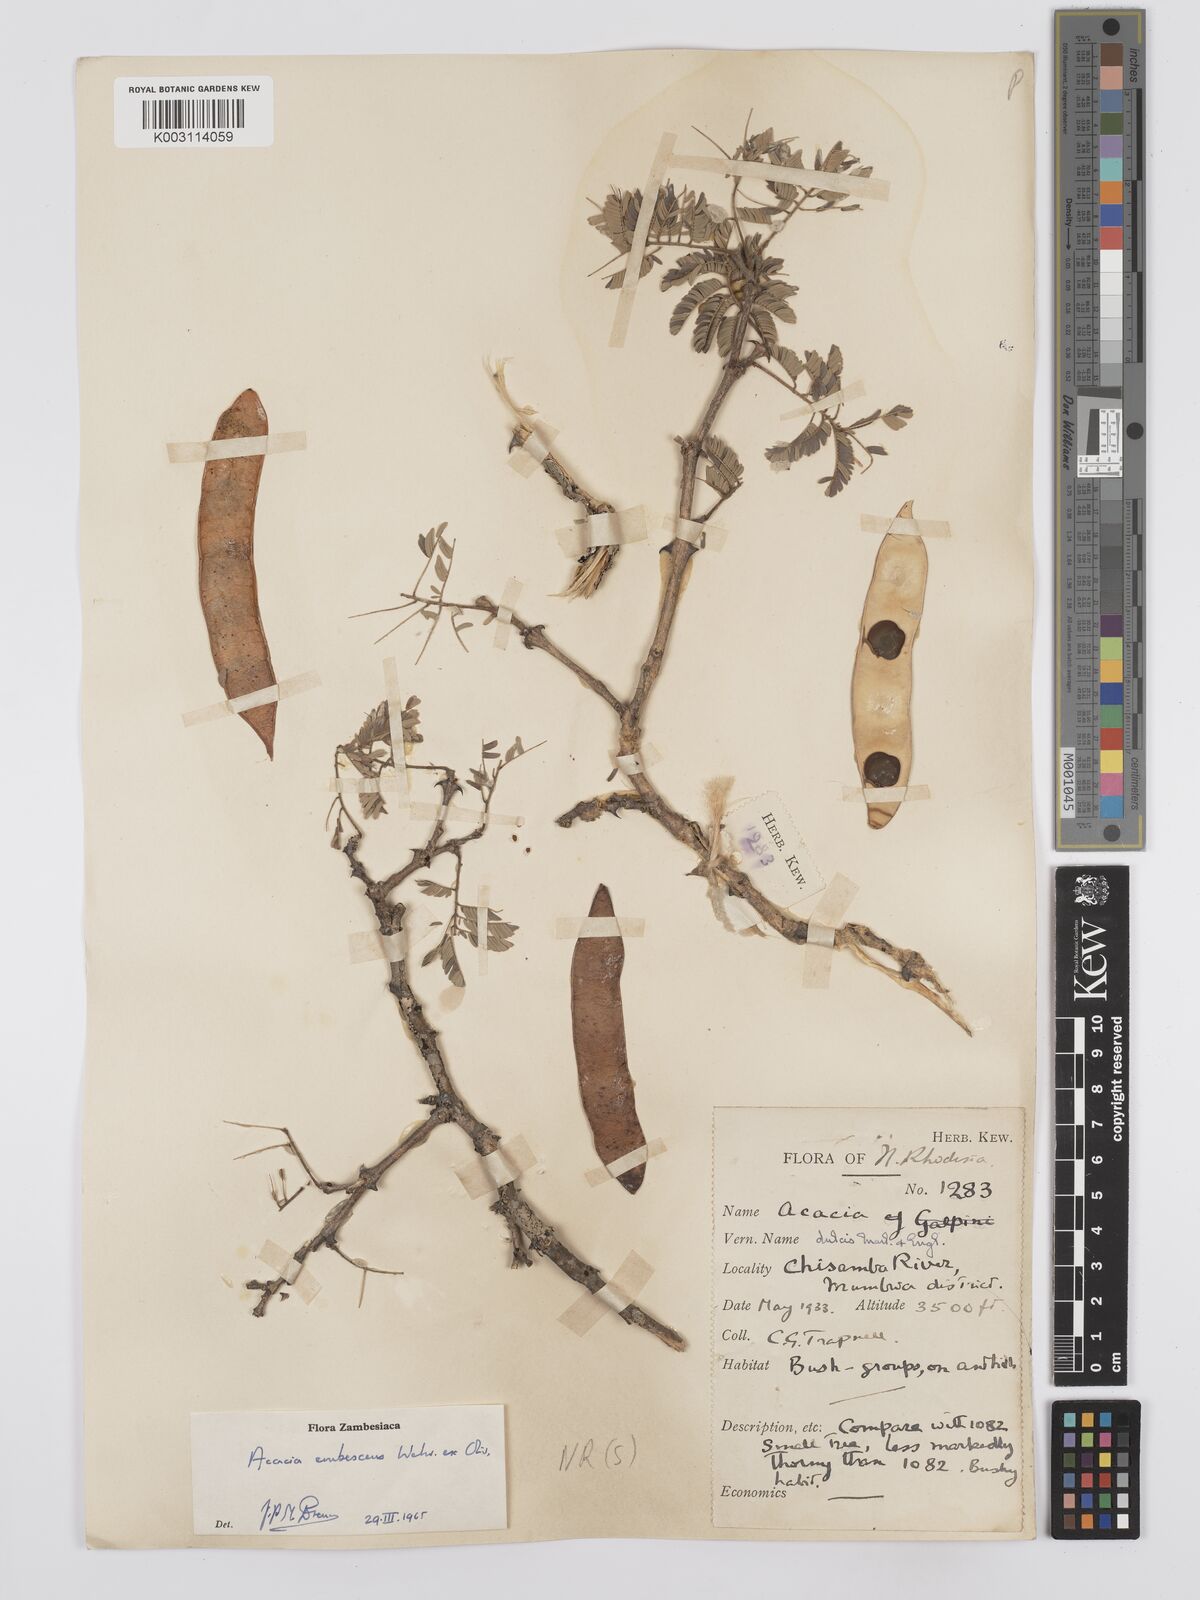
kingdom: Plantae
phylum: Tracheophyta
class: Magnoliopsida
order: Fabales
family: Fabaceae
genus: Senegalia
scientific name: Senegalia erubescens
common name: Bluethorn
